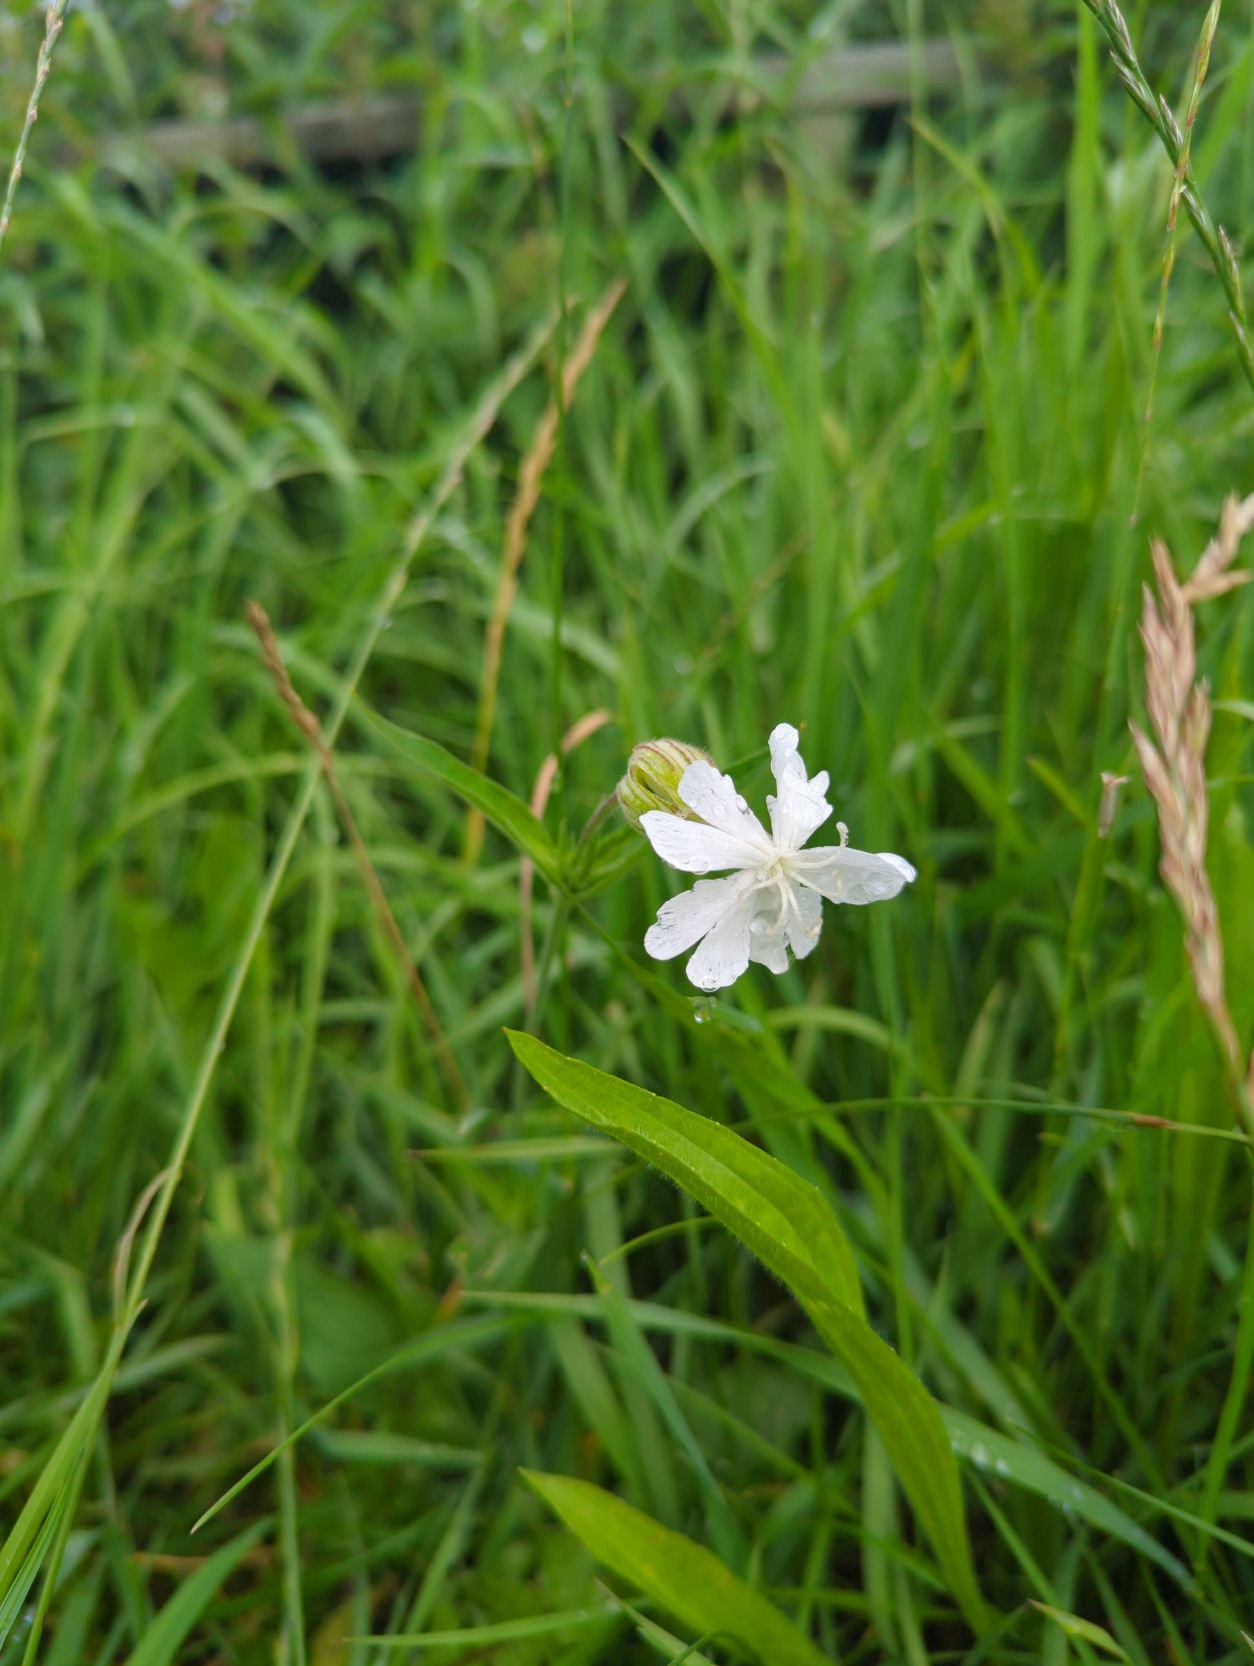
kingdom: Plantae
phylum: Tracheophyta
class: Magnoliopsida
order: Caryophyllales
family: Caryophyllaceae
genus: Silene
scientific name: Silene latifolia
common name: Aftenpragtstjerne
